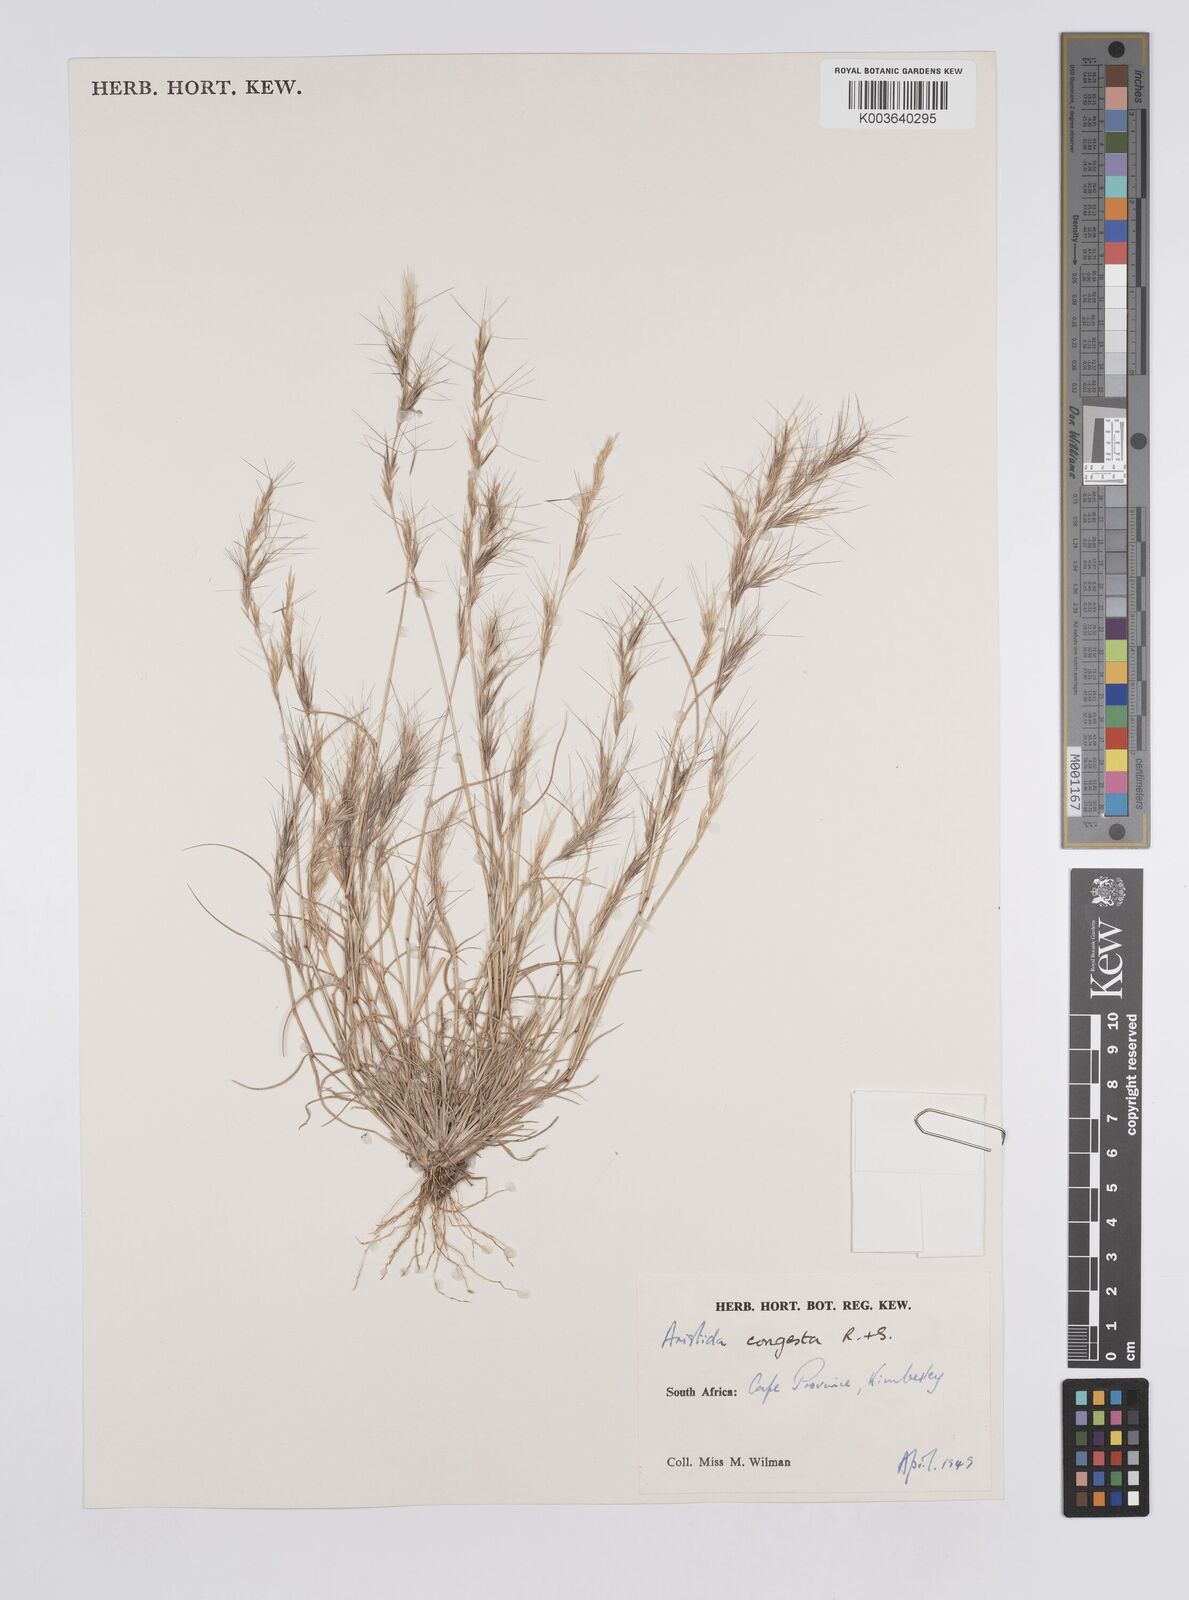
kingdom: Plantae
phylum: Tracheophyta
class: Liliopsida
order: Poales
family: Poaceae
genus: Aristida
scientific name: Aristida congesta
